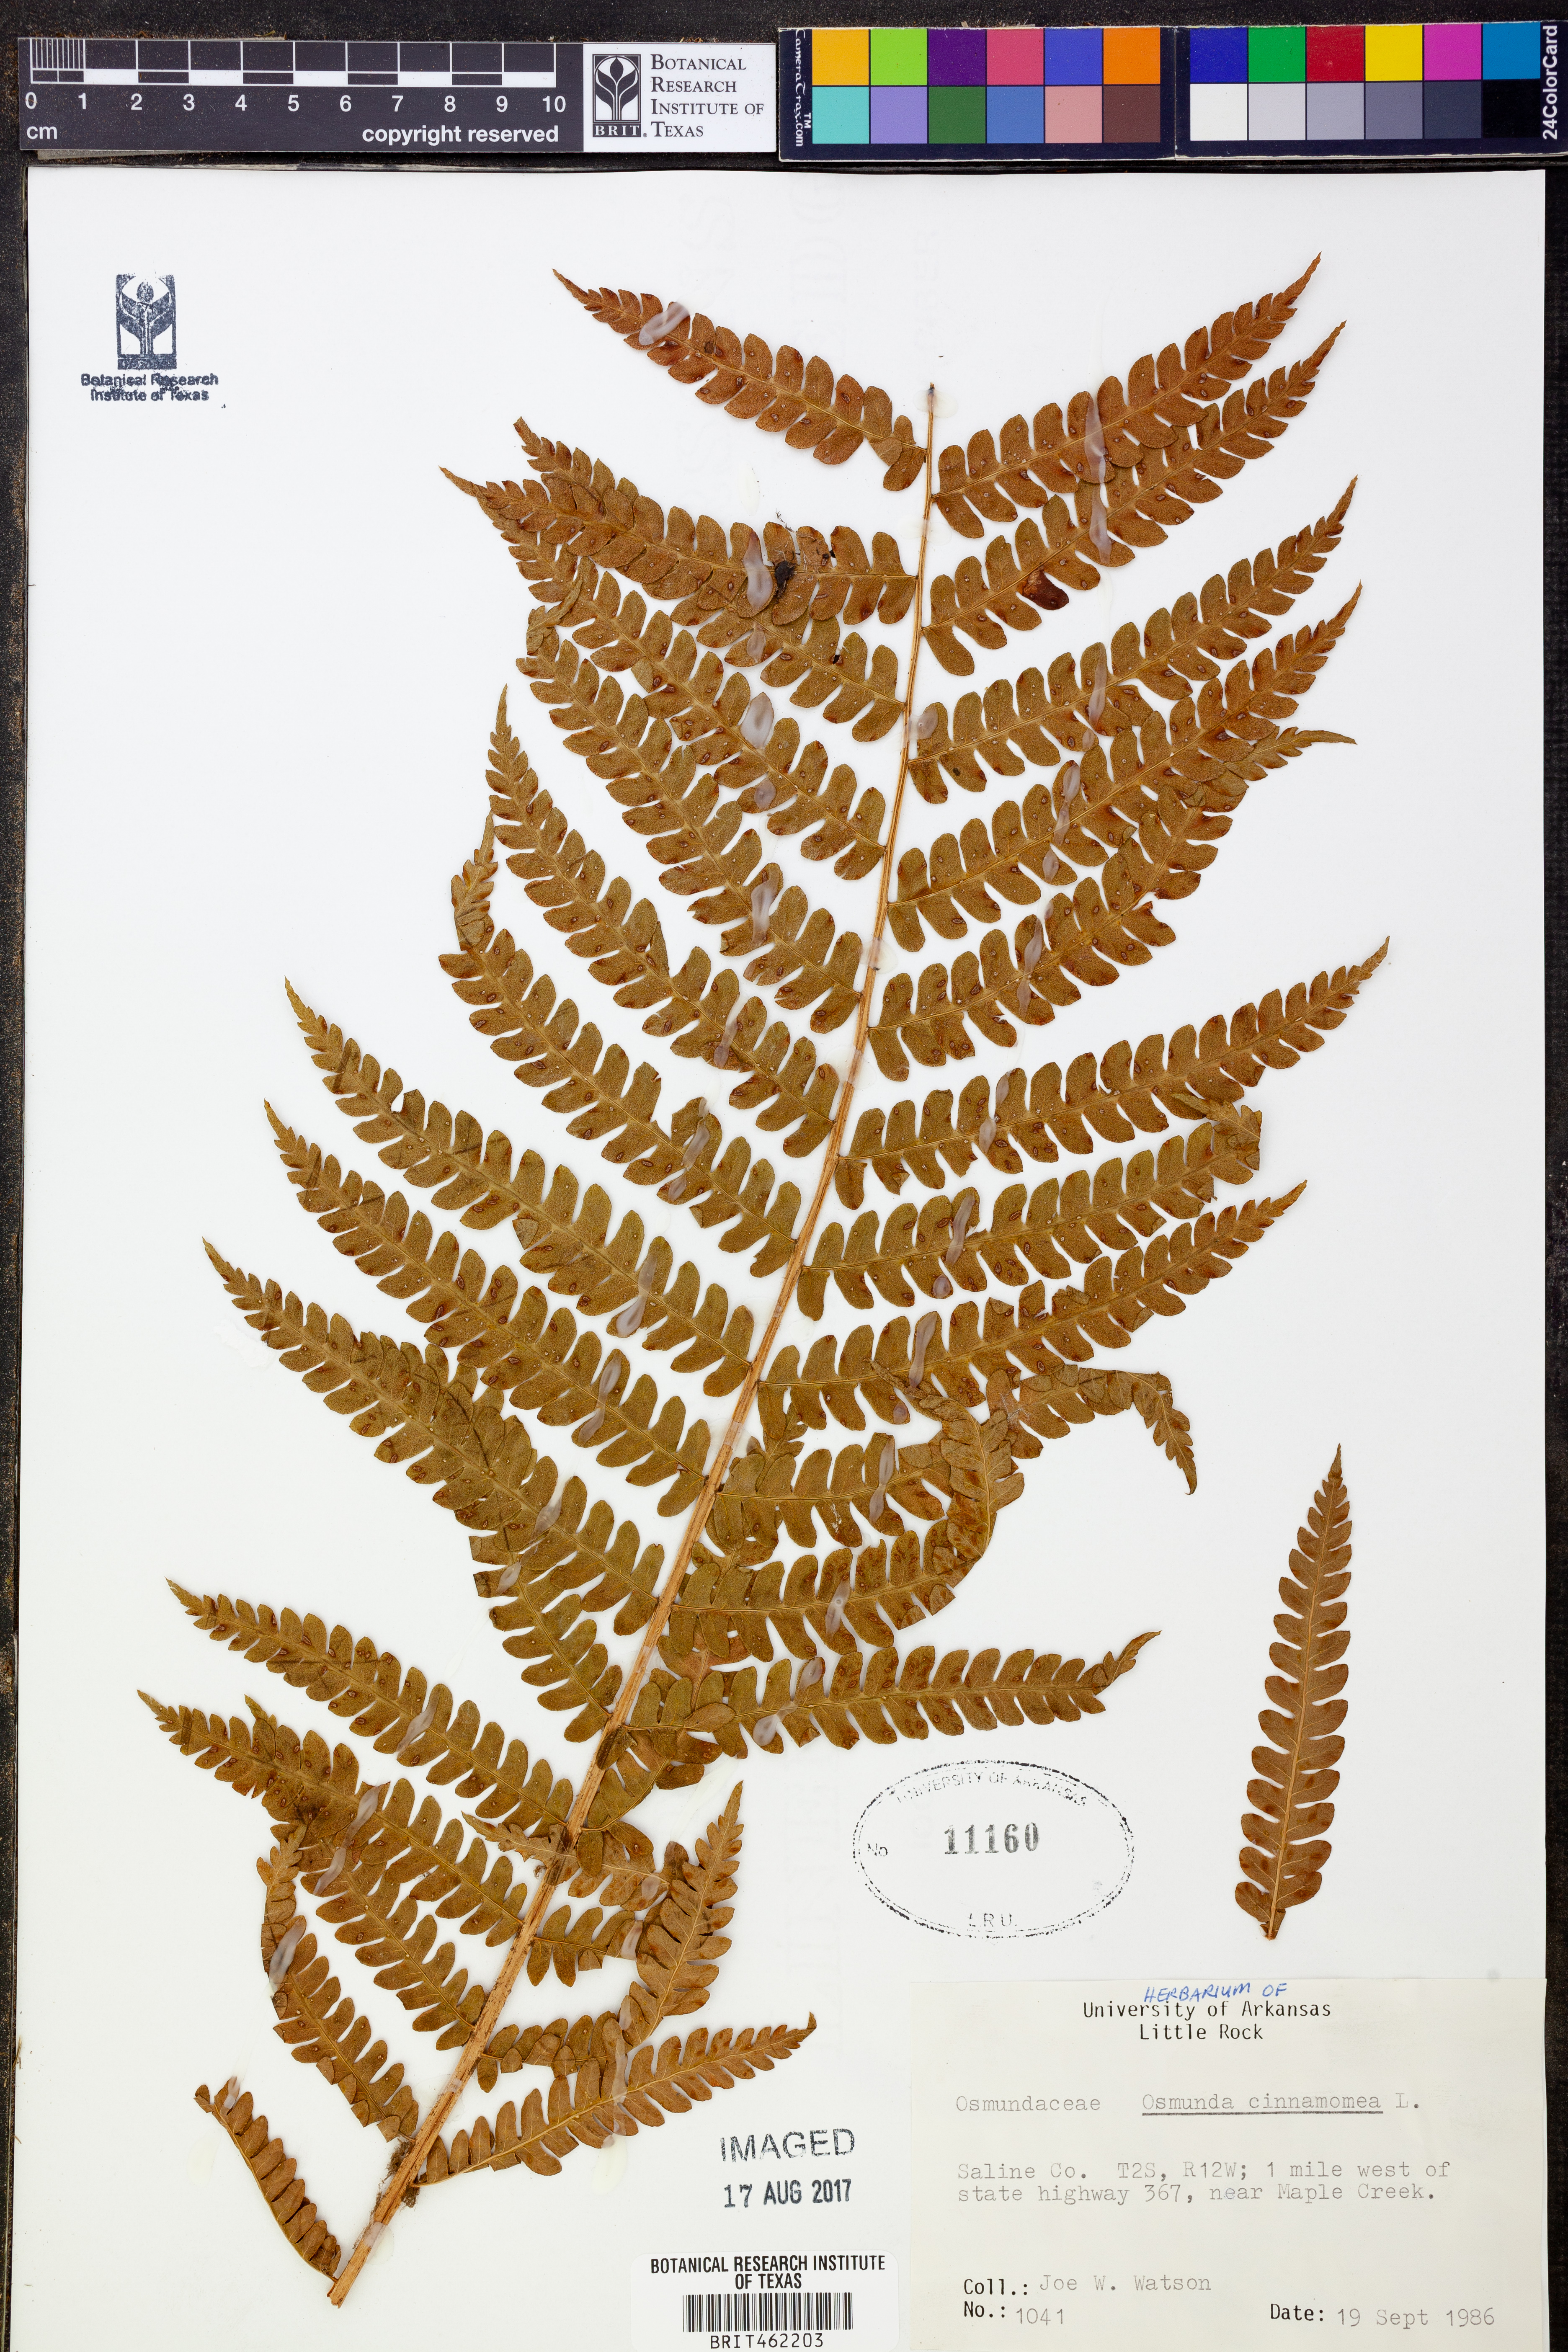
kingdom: Plantae
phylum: Tracheophyta
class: Polypodiopsida
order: Osmundales
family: Osmundaceae
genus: Osmundastrum
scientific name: Osmundastrum cinnamomeum
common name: Cinnamon fern
